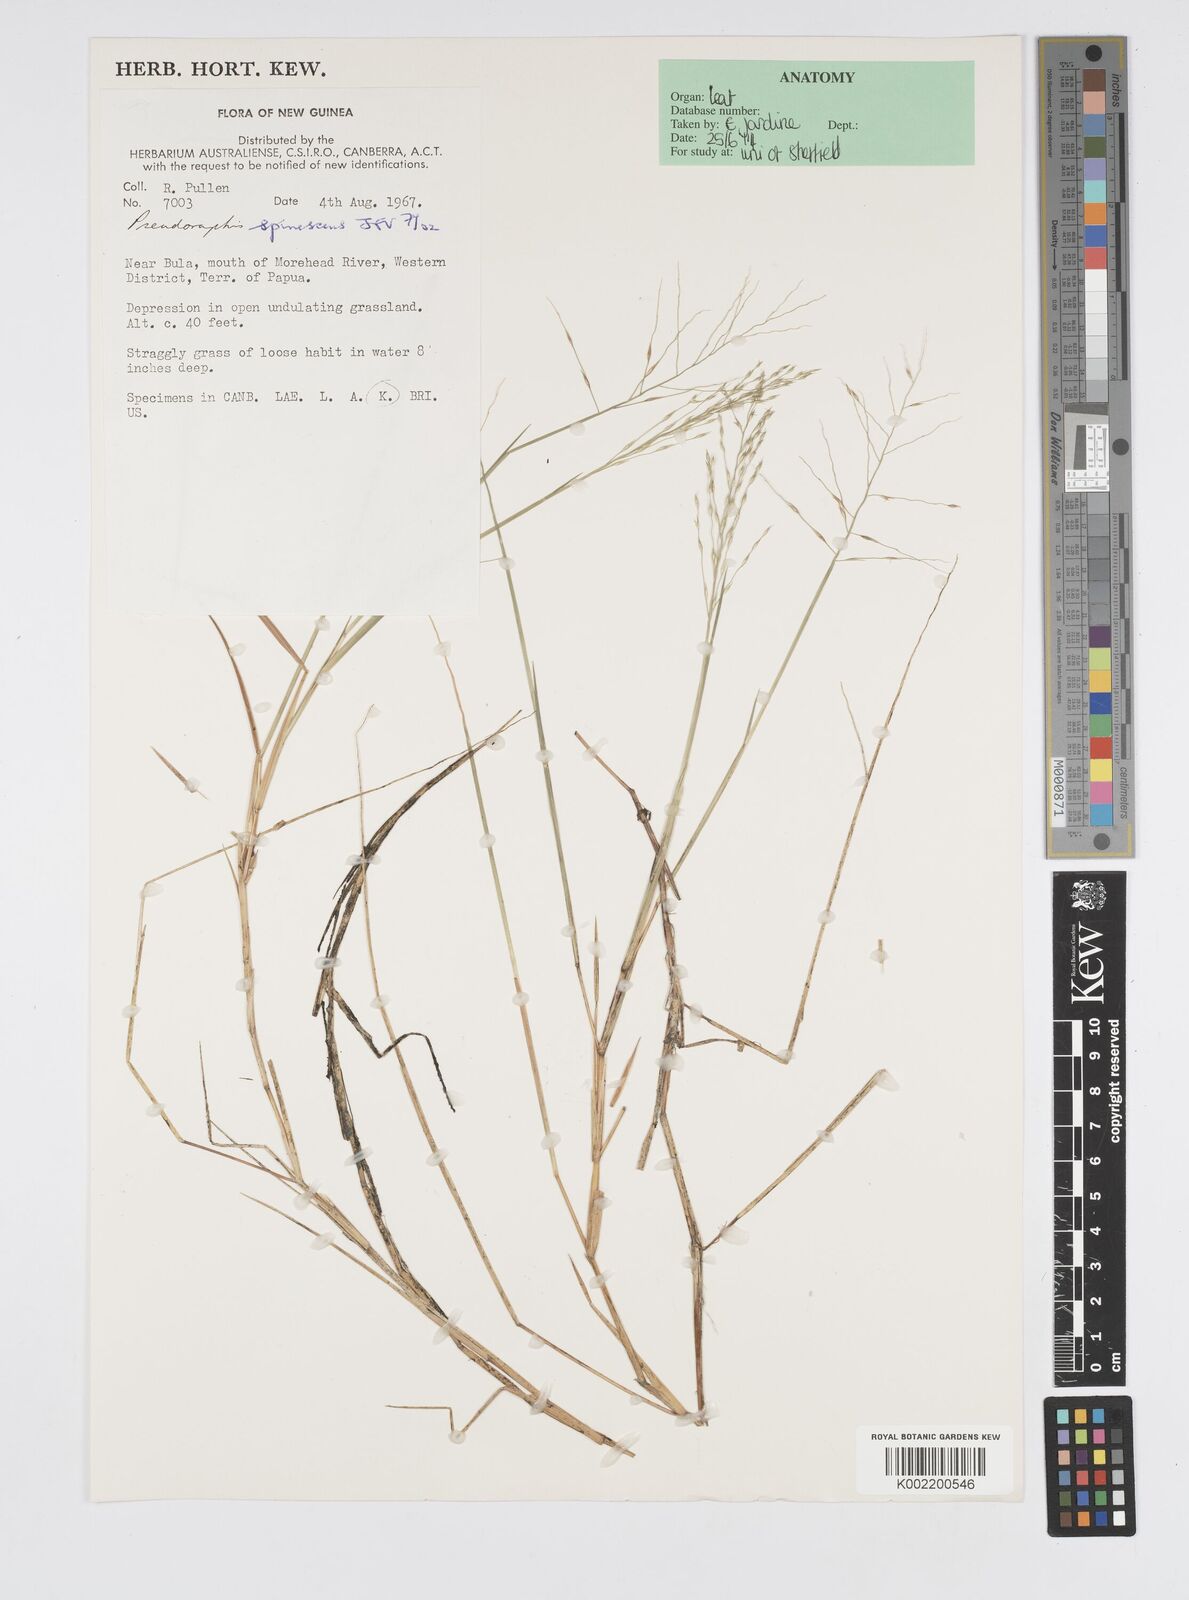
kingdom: Plantae
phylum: Tracheophyta
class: Liliopsida
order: Poales
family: Poaceae
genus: Pseudoraphis
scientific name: Pseudoraphis spinescens
